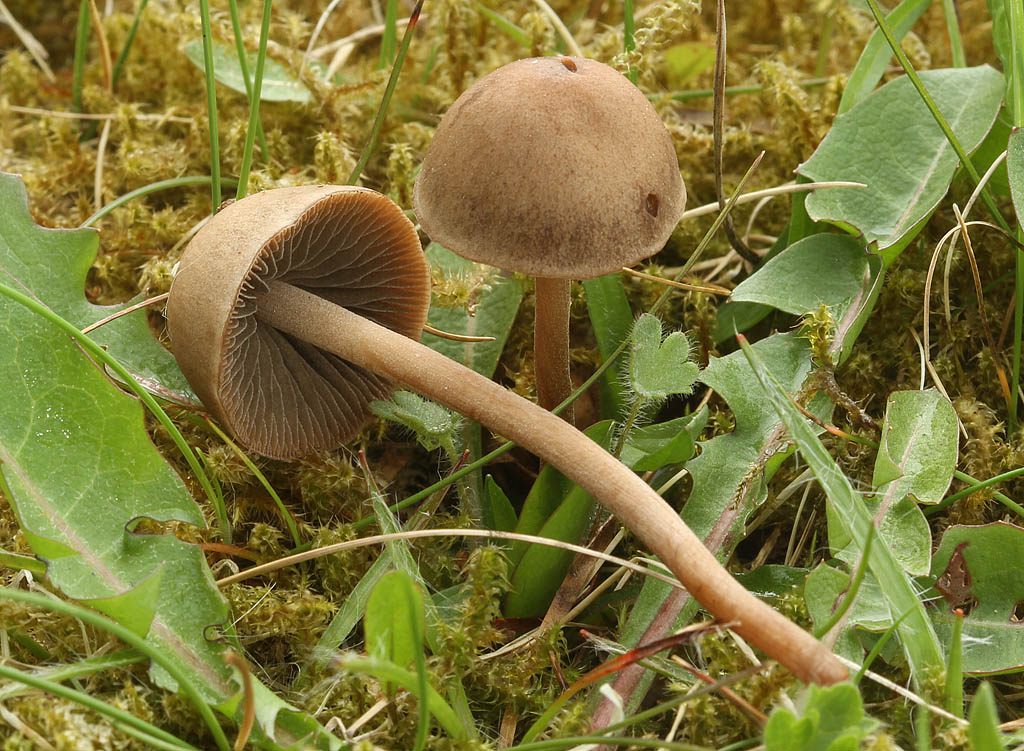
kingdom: Fungi
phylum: Basidiomycota
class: Agaricomycetes
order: Agaricales
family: Bolbitiaceae
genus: Panaeolus
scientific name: Panaeolus acuminatus
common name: høj glanshat
